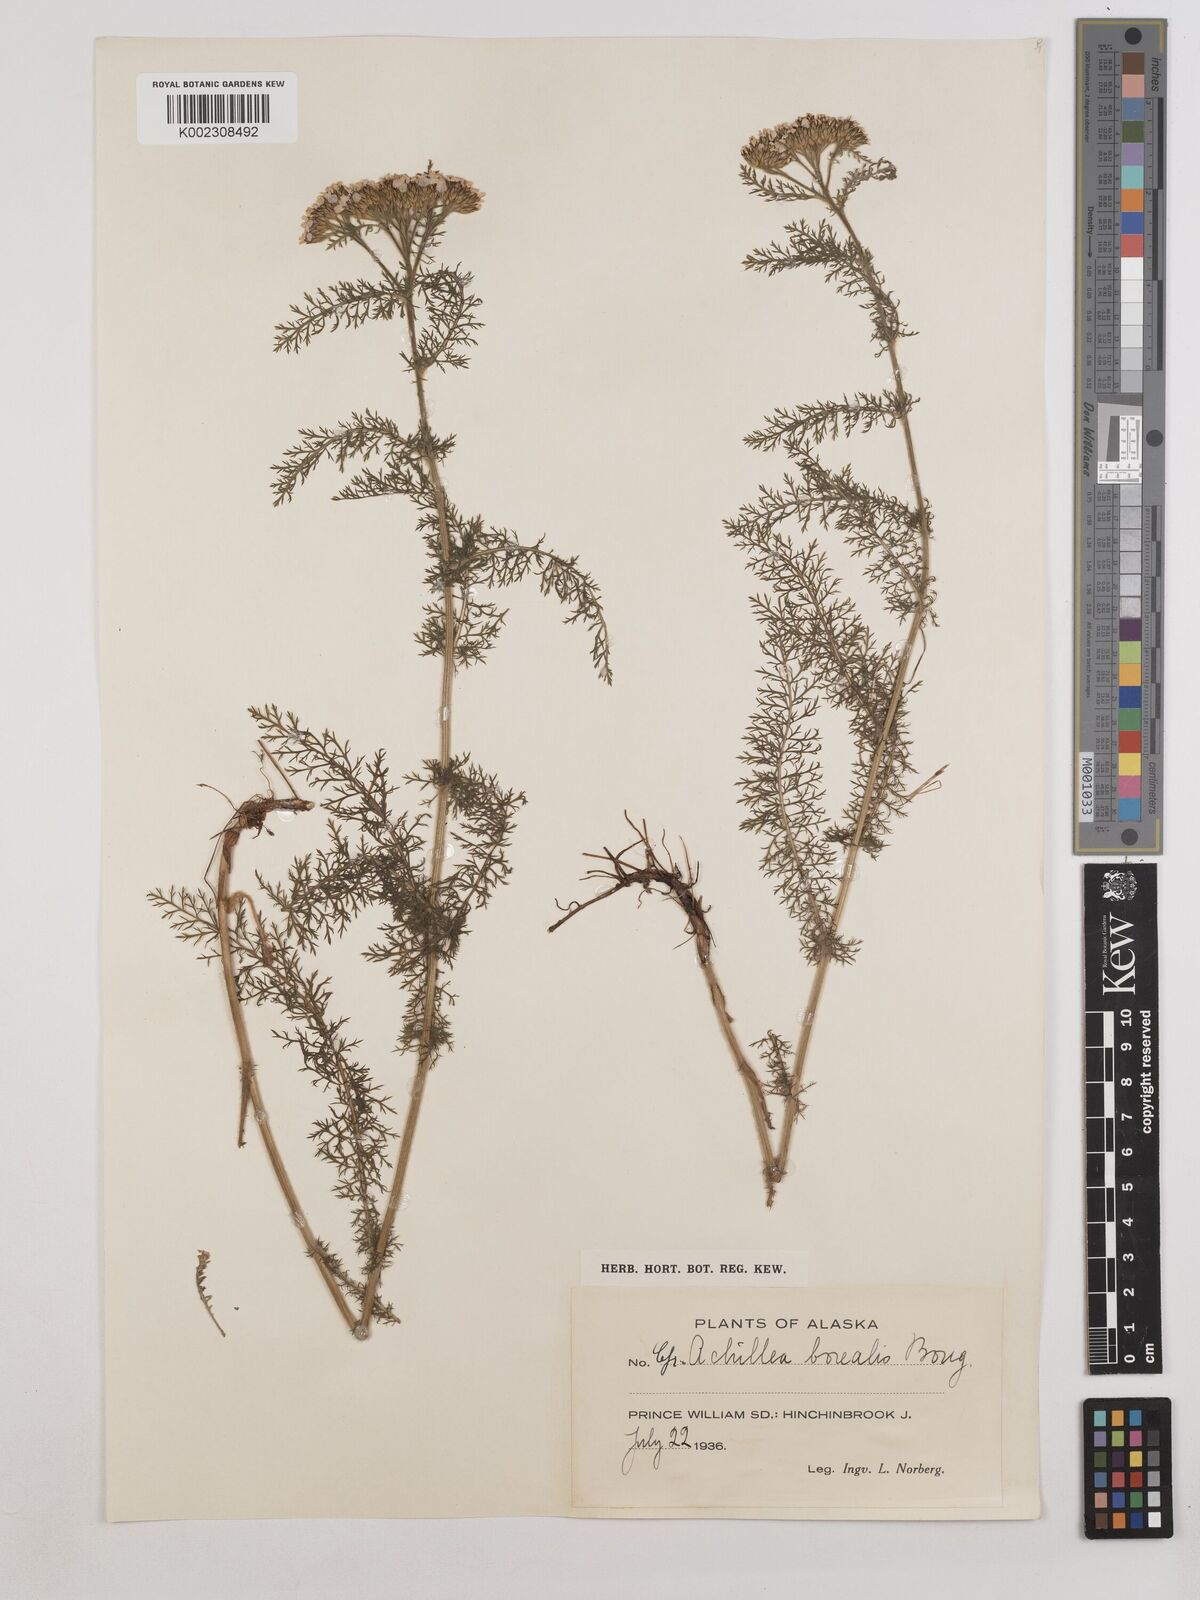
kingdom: Plantae
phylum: Tracheophyta
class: Magnoliopsida
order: Asterales
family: Asteraceae
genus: Achillea
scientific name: Achillea millefolium
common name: Yarrow
